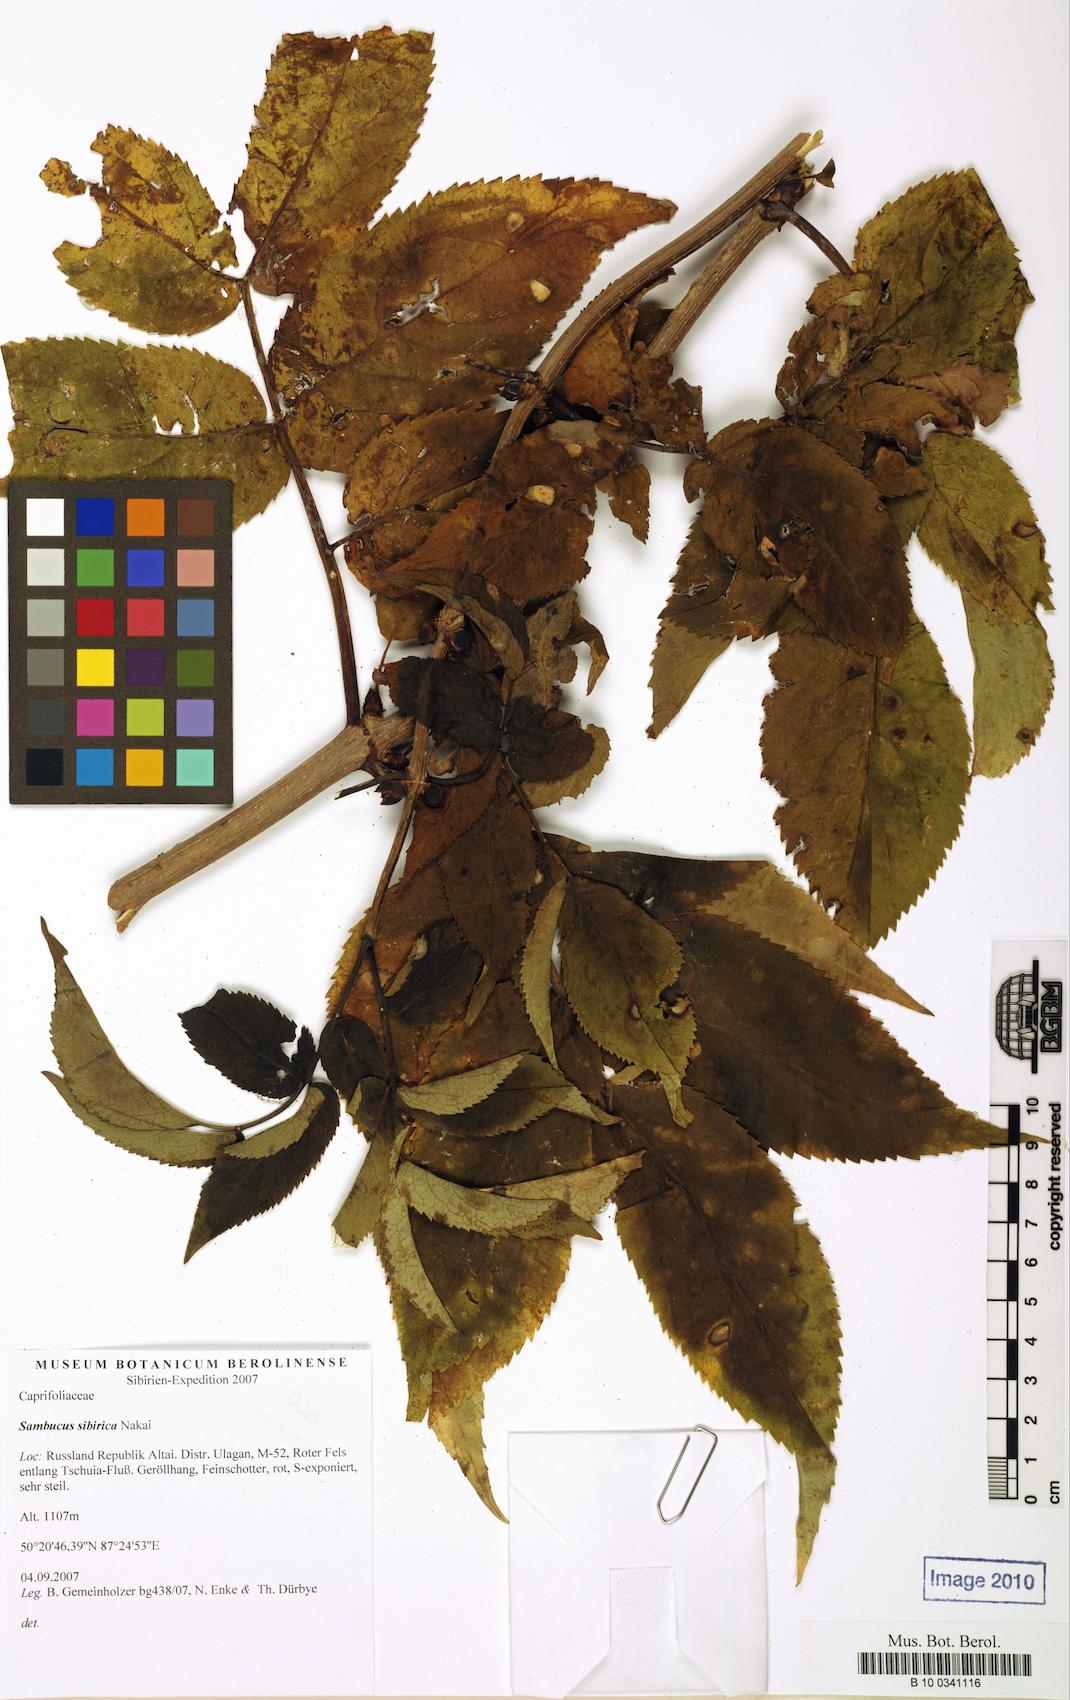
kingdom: Plantae
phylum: Tracheophyta
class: Magnoliopsida
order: Dipsacales
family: Viburnaceae
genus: Sambucus
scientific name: Sambucus sibirica
